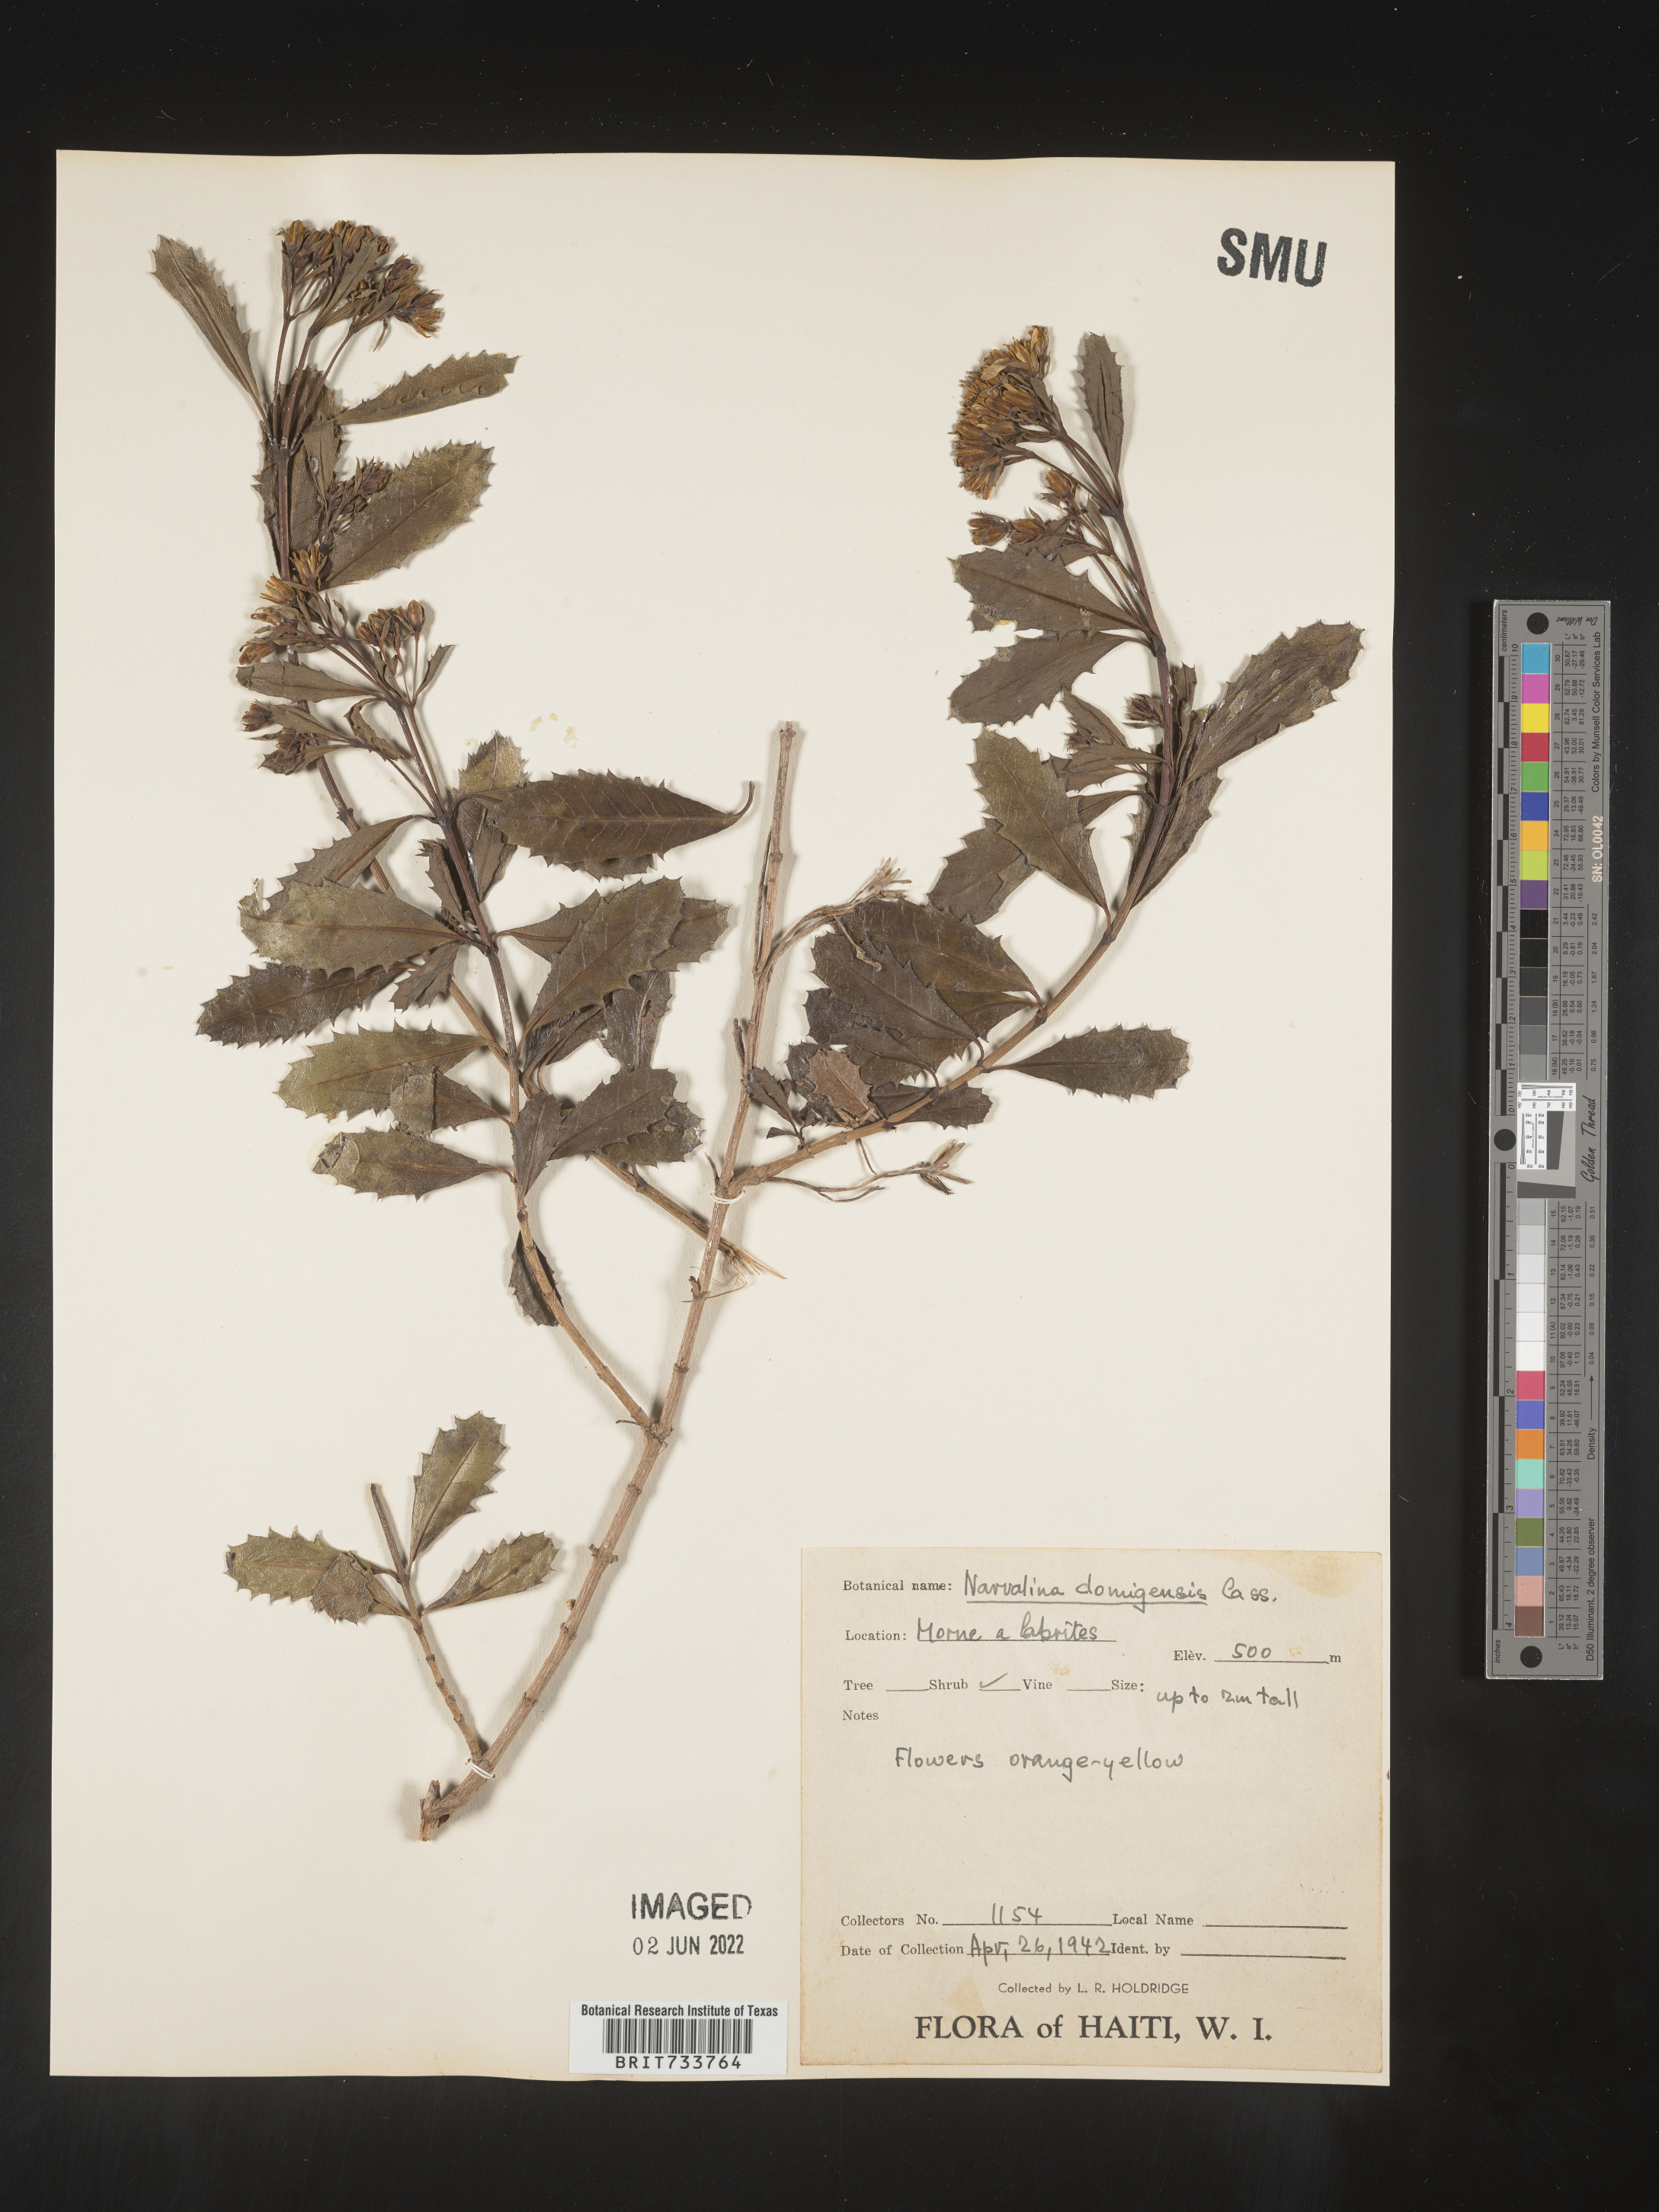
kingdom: Plantae
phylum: Tracheophyta
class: Magnoliopsida
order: Asterales
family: Asteraceae
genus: Narvalina
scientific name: Narvalina domingensis
